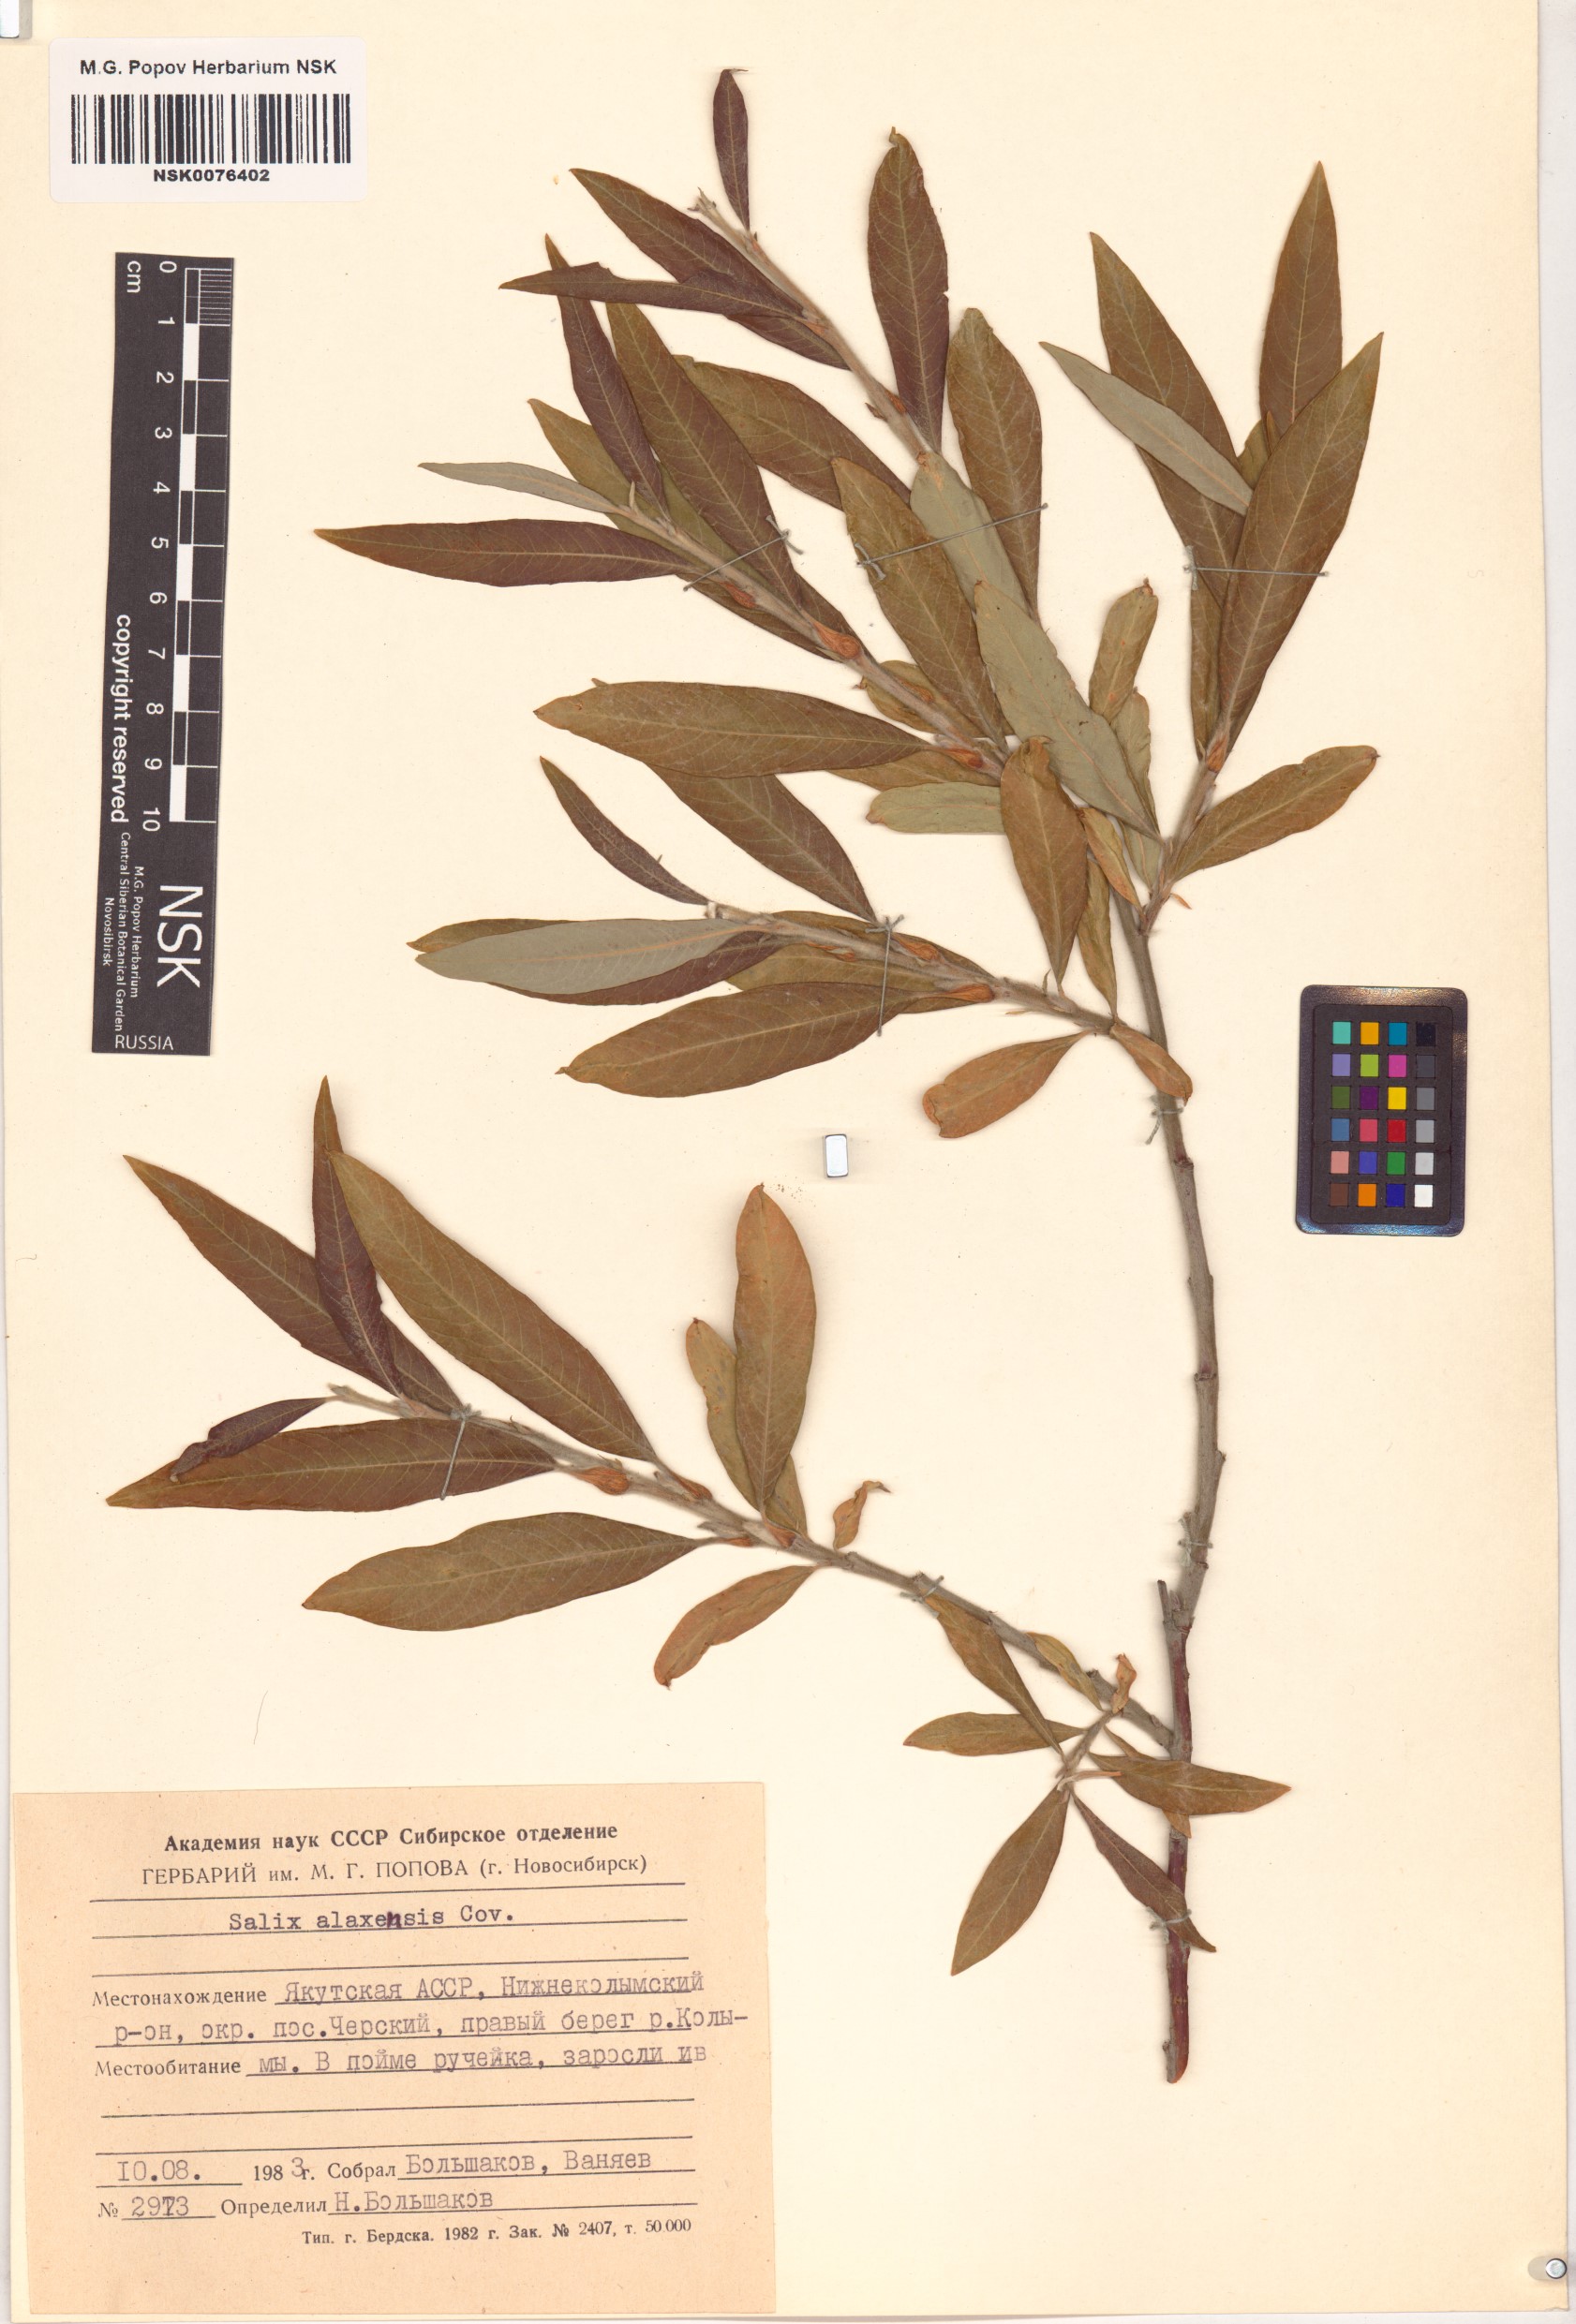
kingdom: Plantae
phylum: Tracheophyta
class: Magnoliopsida
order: Malpighiales
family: Salicaceae
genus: Salix
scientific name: Salix alaxensis
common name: Feltleaf willow
